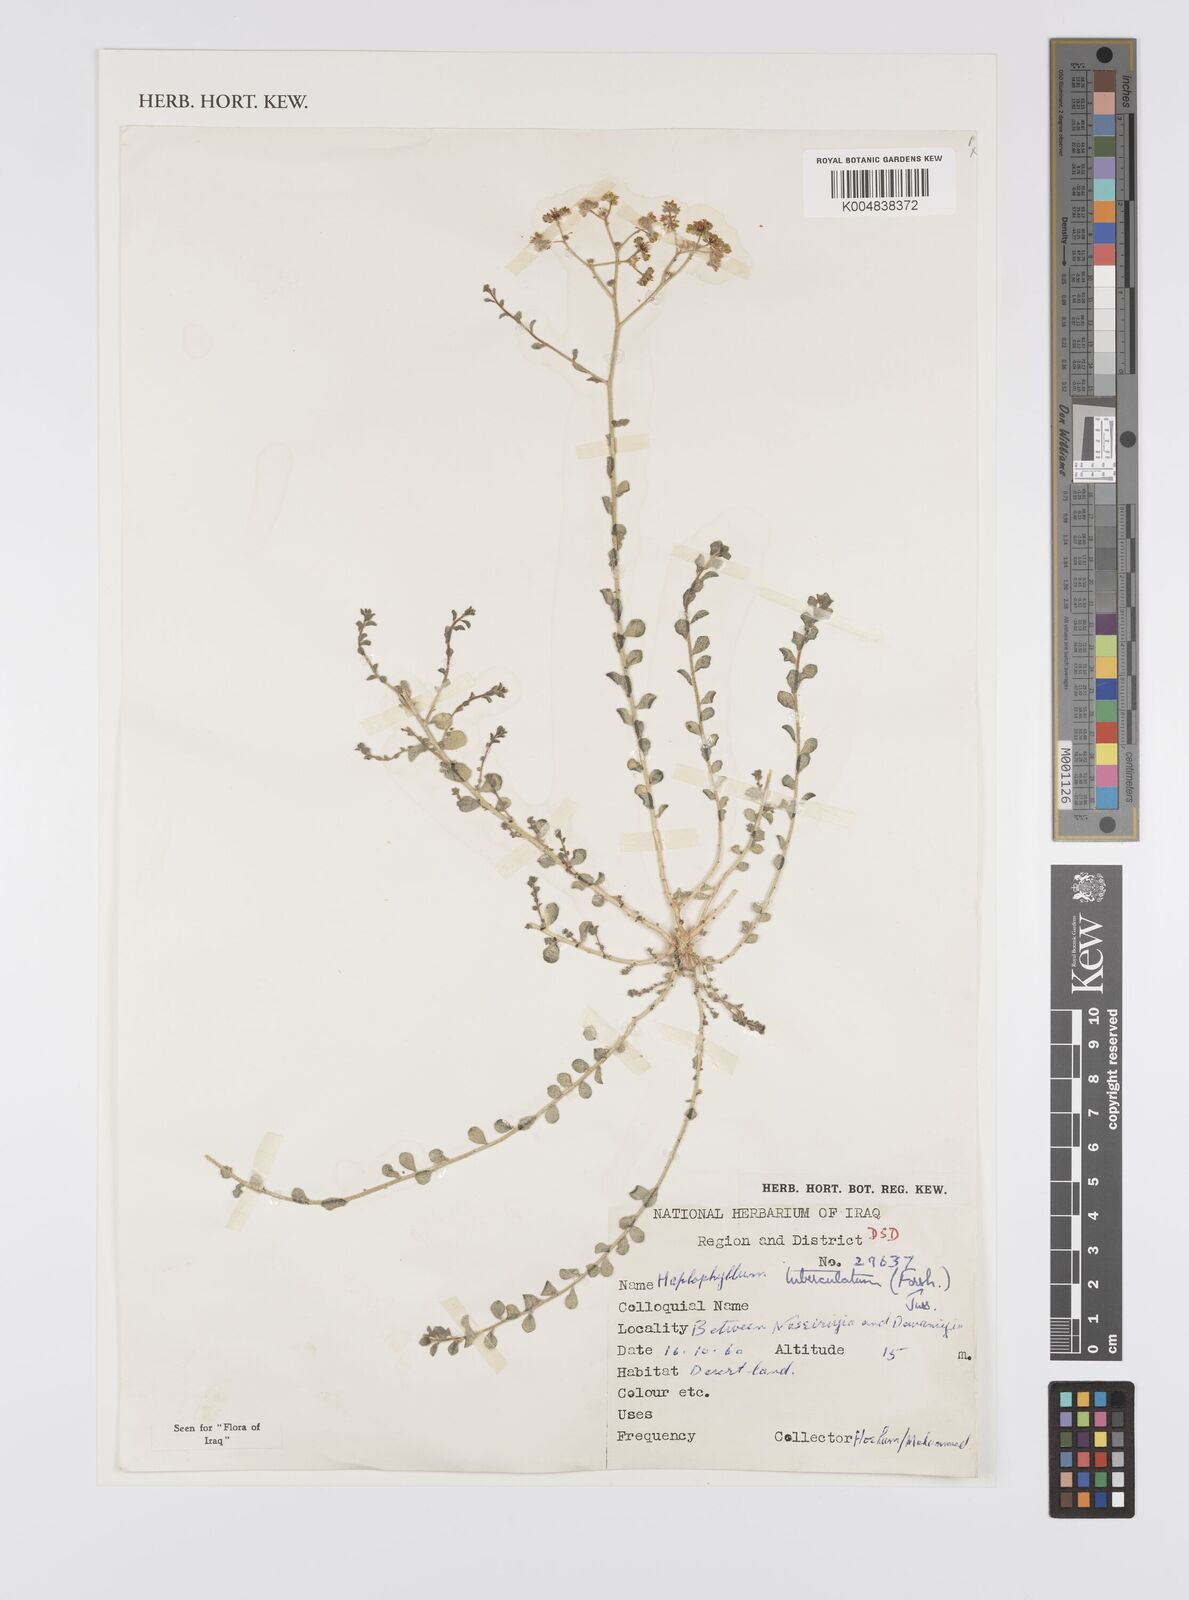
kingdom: Plantae
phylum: Tracheophyta
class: Magnoliopsida
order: Sapindales
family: Rutaceae
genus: Haplophyllum
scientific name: Haplophyllum tuberculatum
